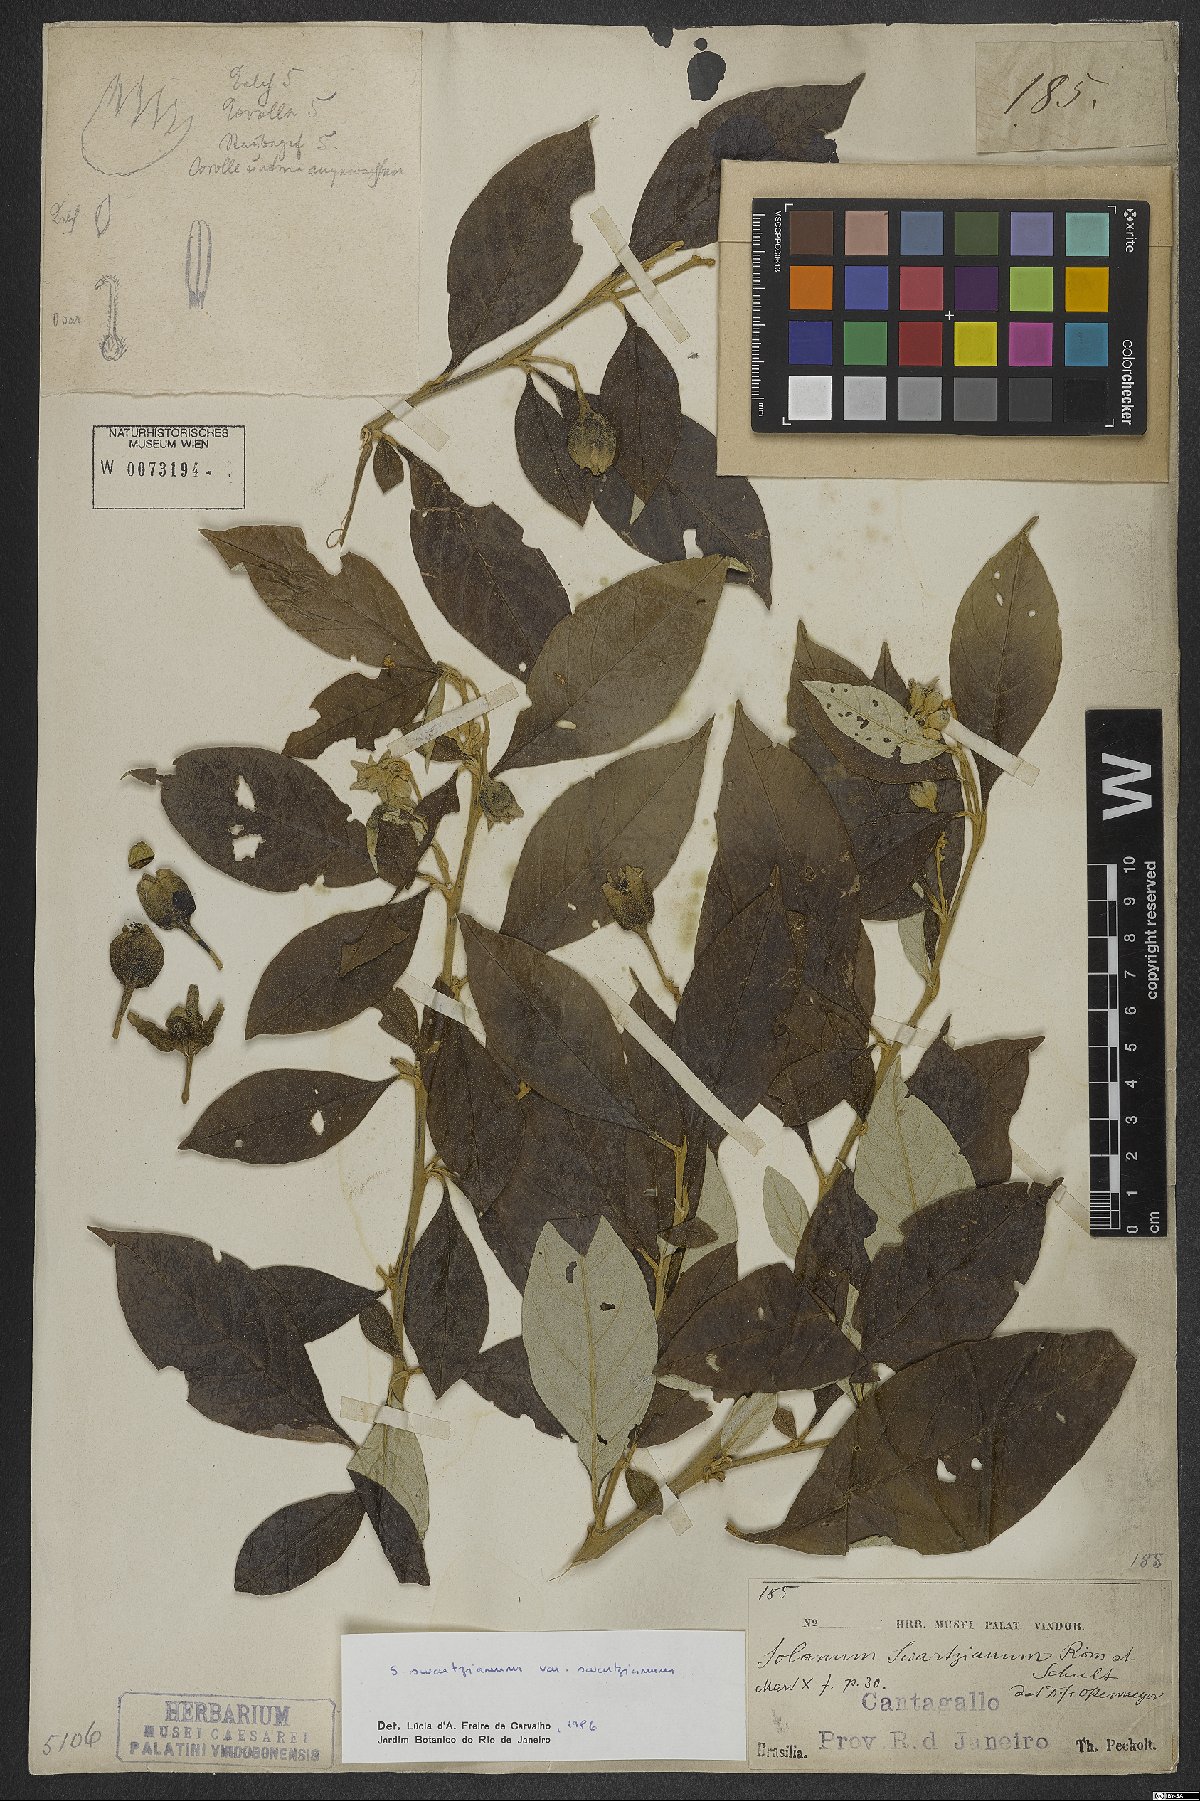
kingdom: Plantae
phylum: Tracheophyta
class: Magnoliopsida
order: Solanales
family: Solanaceae
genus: Solanum
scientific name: Solanum swartzianum
